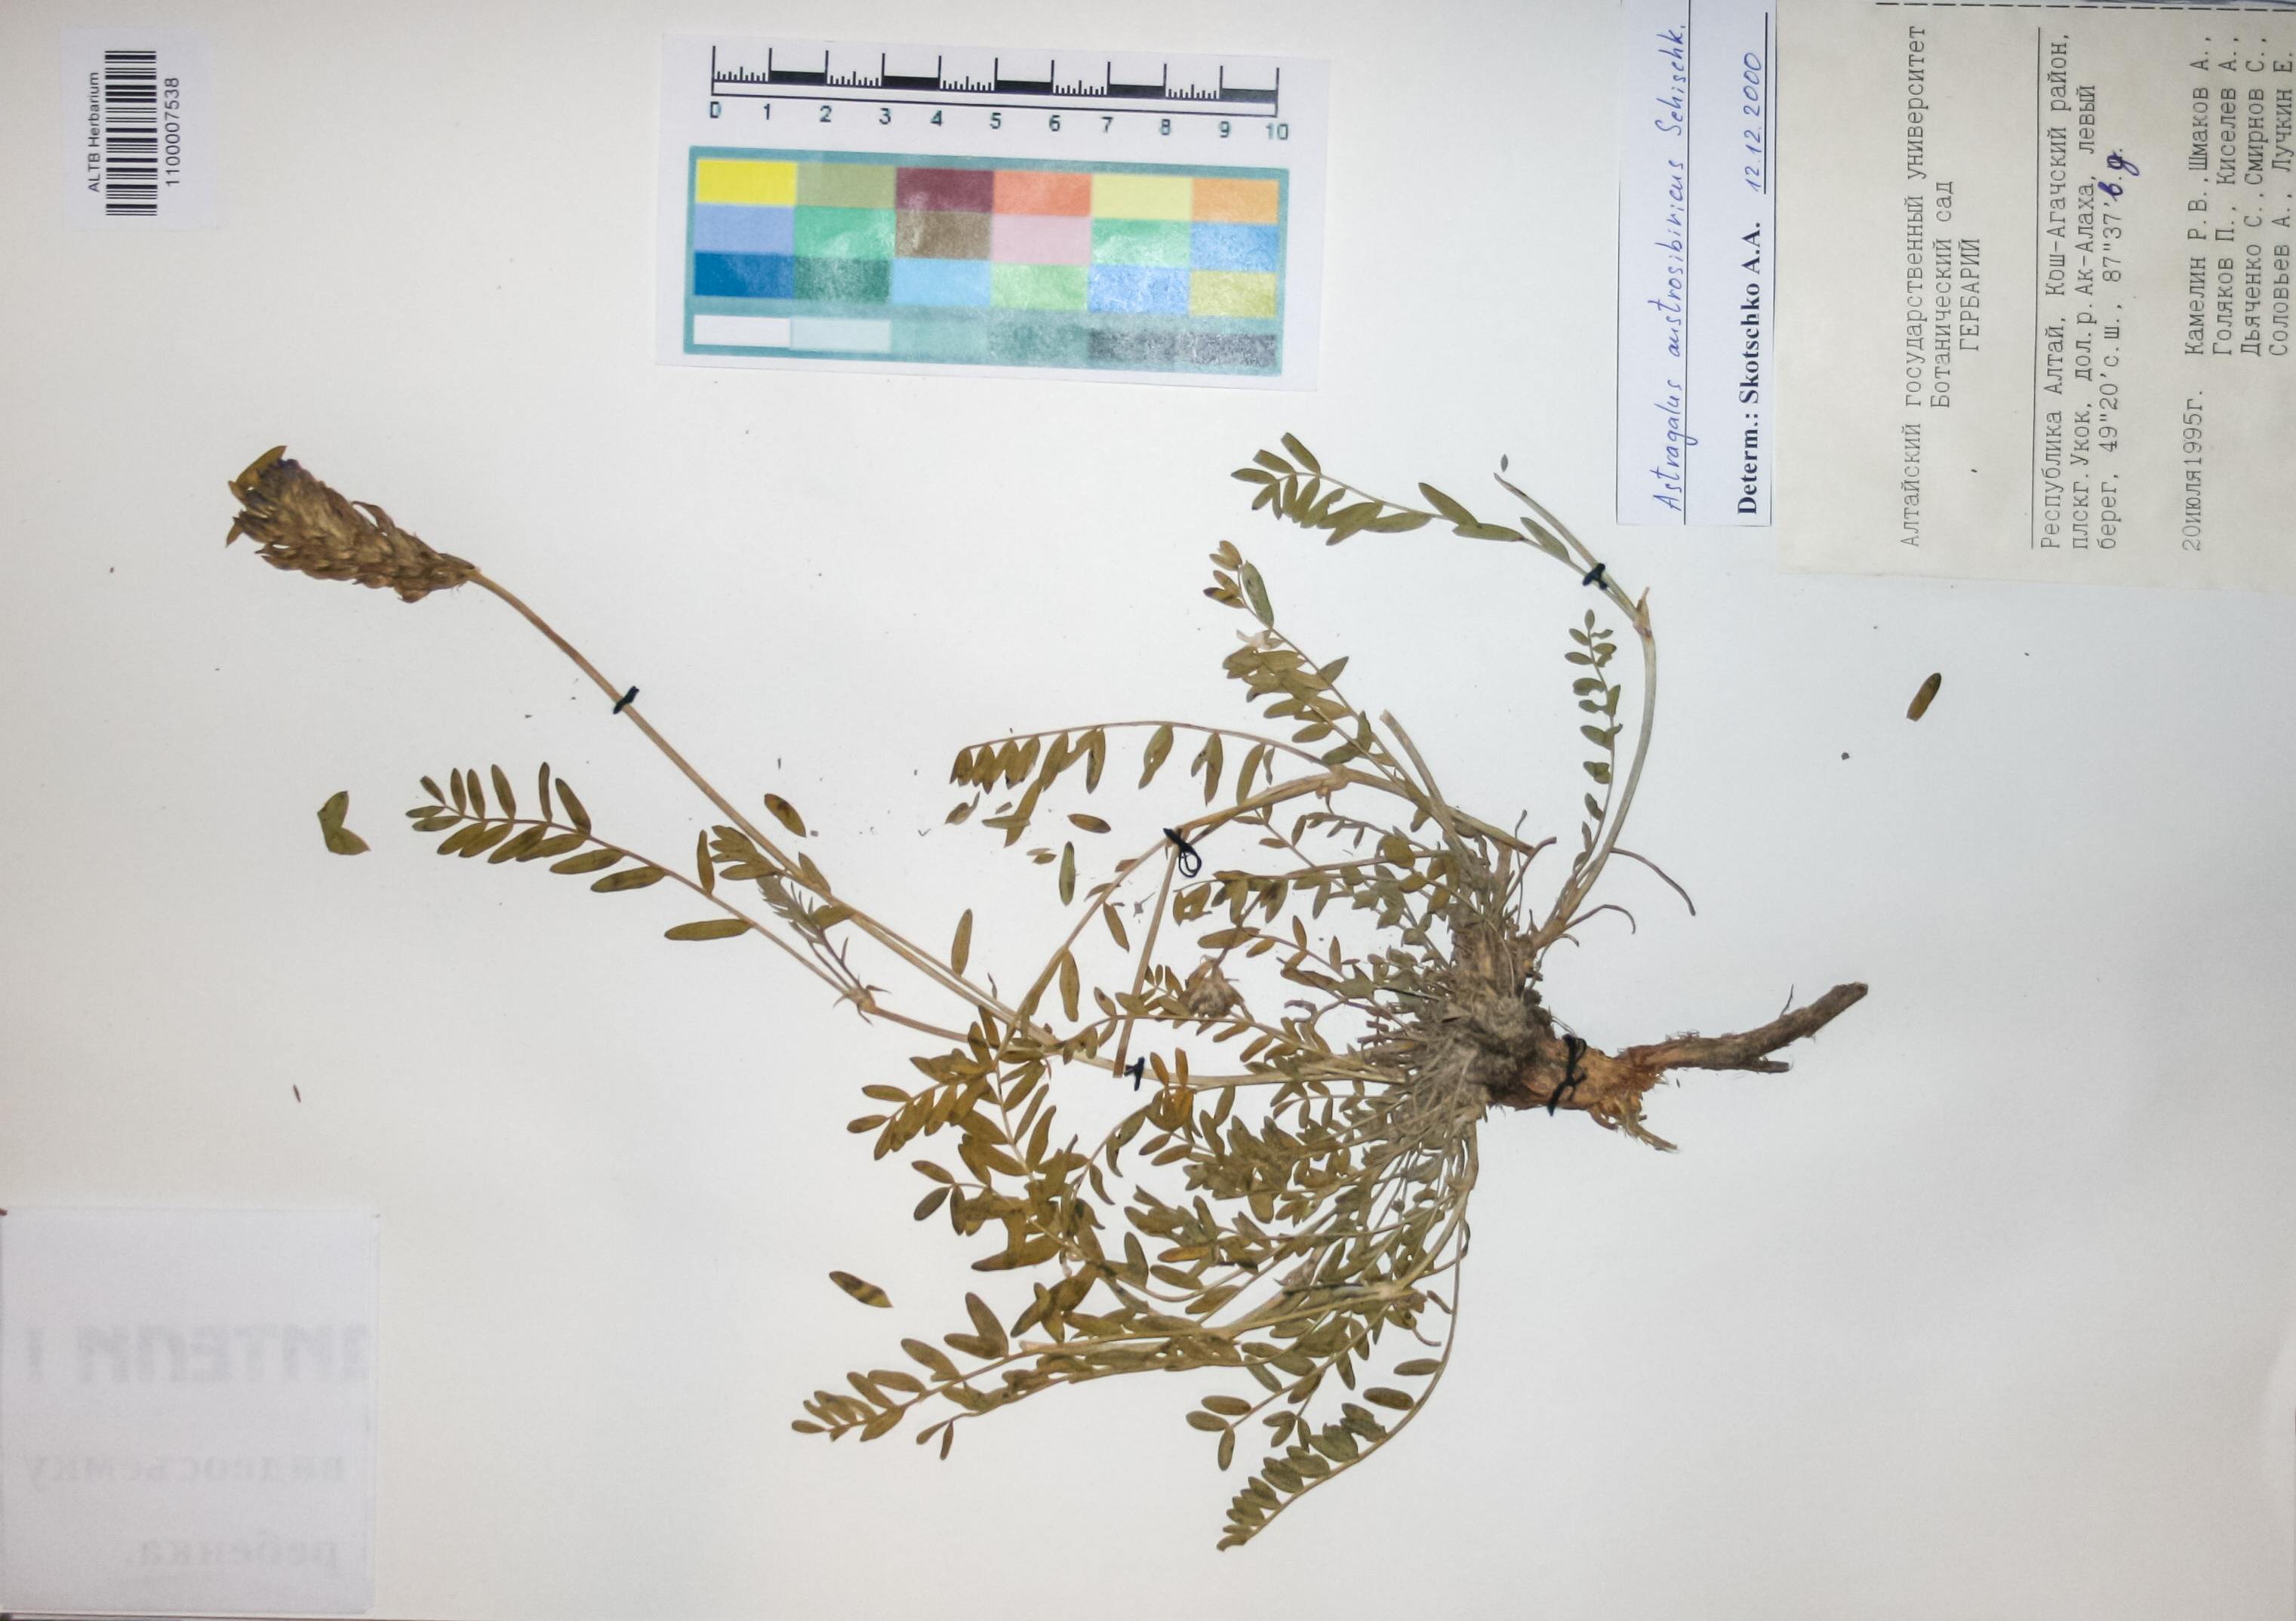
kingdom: Plantae
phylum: Tracheophyta
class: Magnoliopsida
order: Fabales
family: Fabaceae
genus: Astragalus
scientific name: Astragalus laxmannii
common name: Laxmann's milk-vetch
